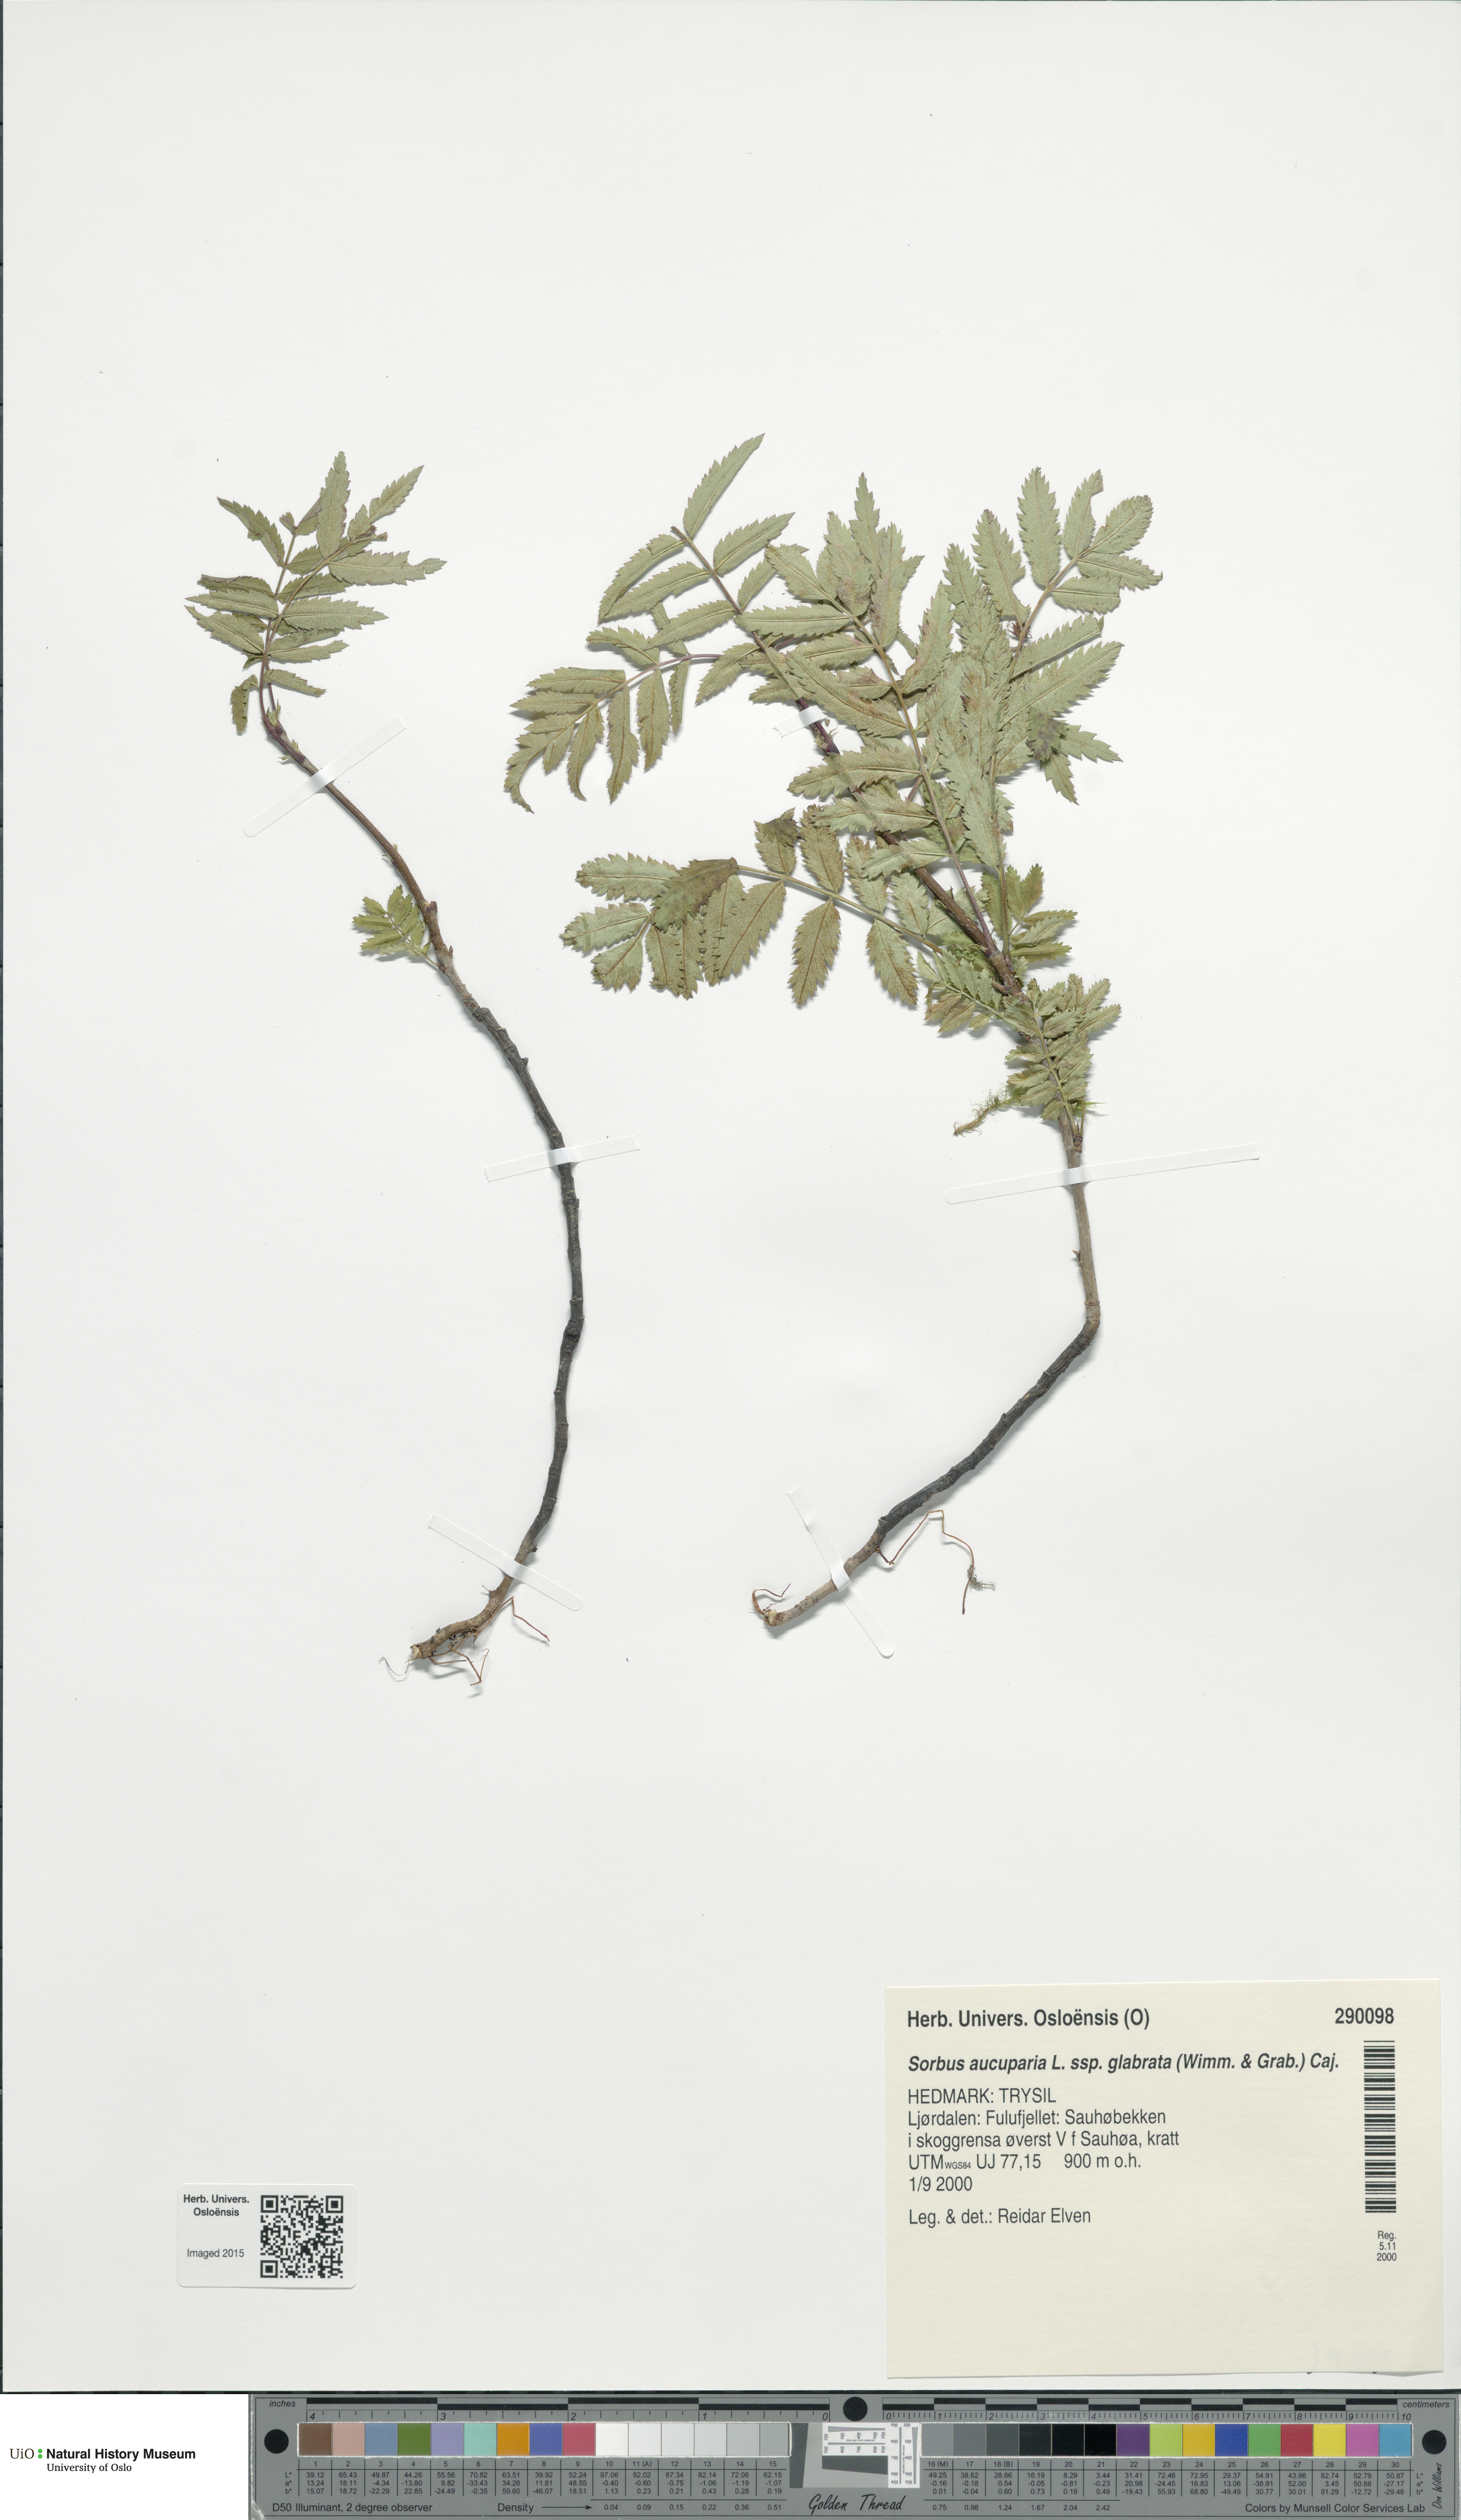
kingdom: Plantae
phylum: Tracheophyta
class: Magnoliopsida
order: Rosales
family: Rosaceae
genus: Sorbus
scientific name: Sorbus aucuparia
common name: Rowan
